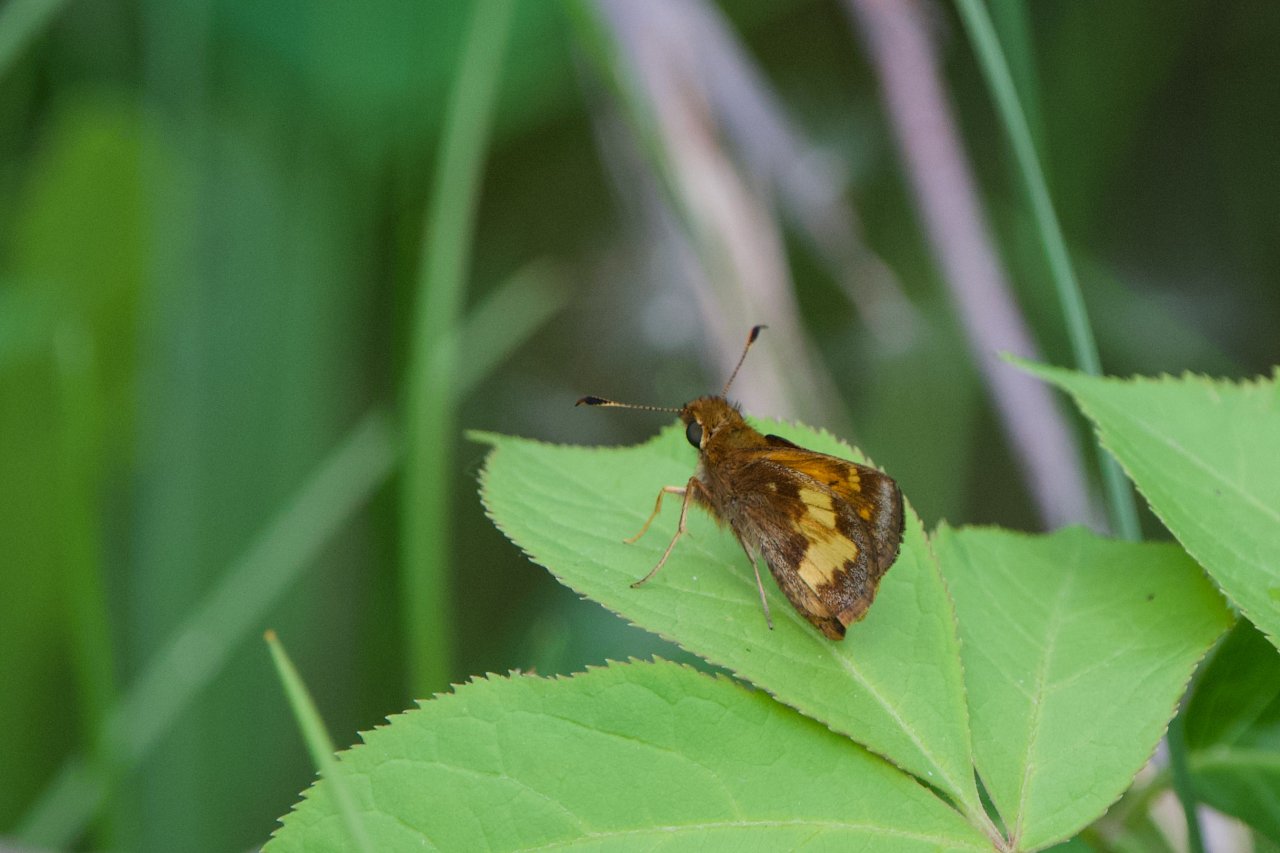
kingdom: Animalia
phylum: Arthropoda
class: Insecta
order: Lepidoptera
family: Hesperiidae
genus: Lon
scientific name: Lon hobomok
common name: Hobomok Skipper
